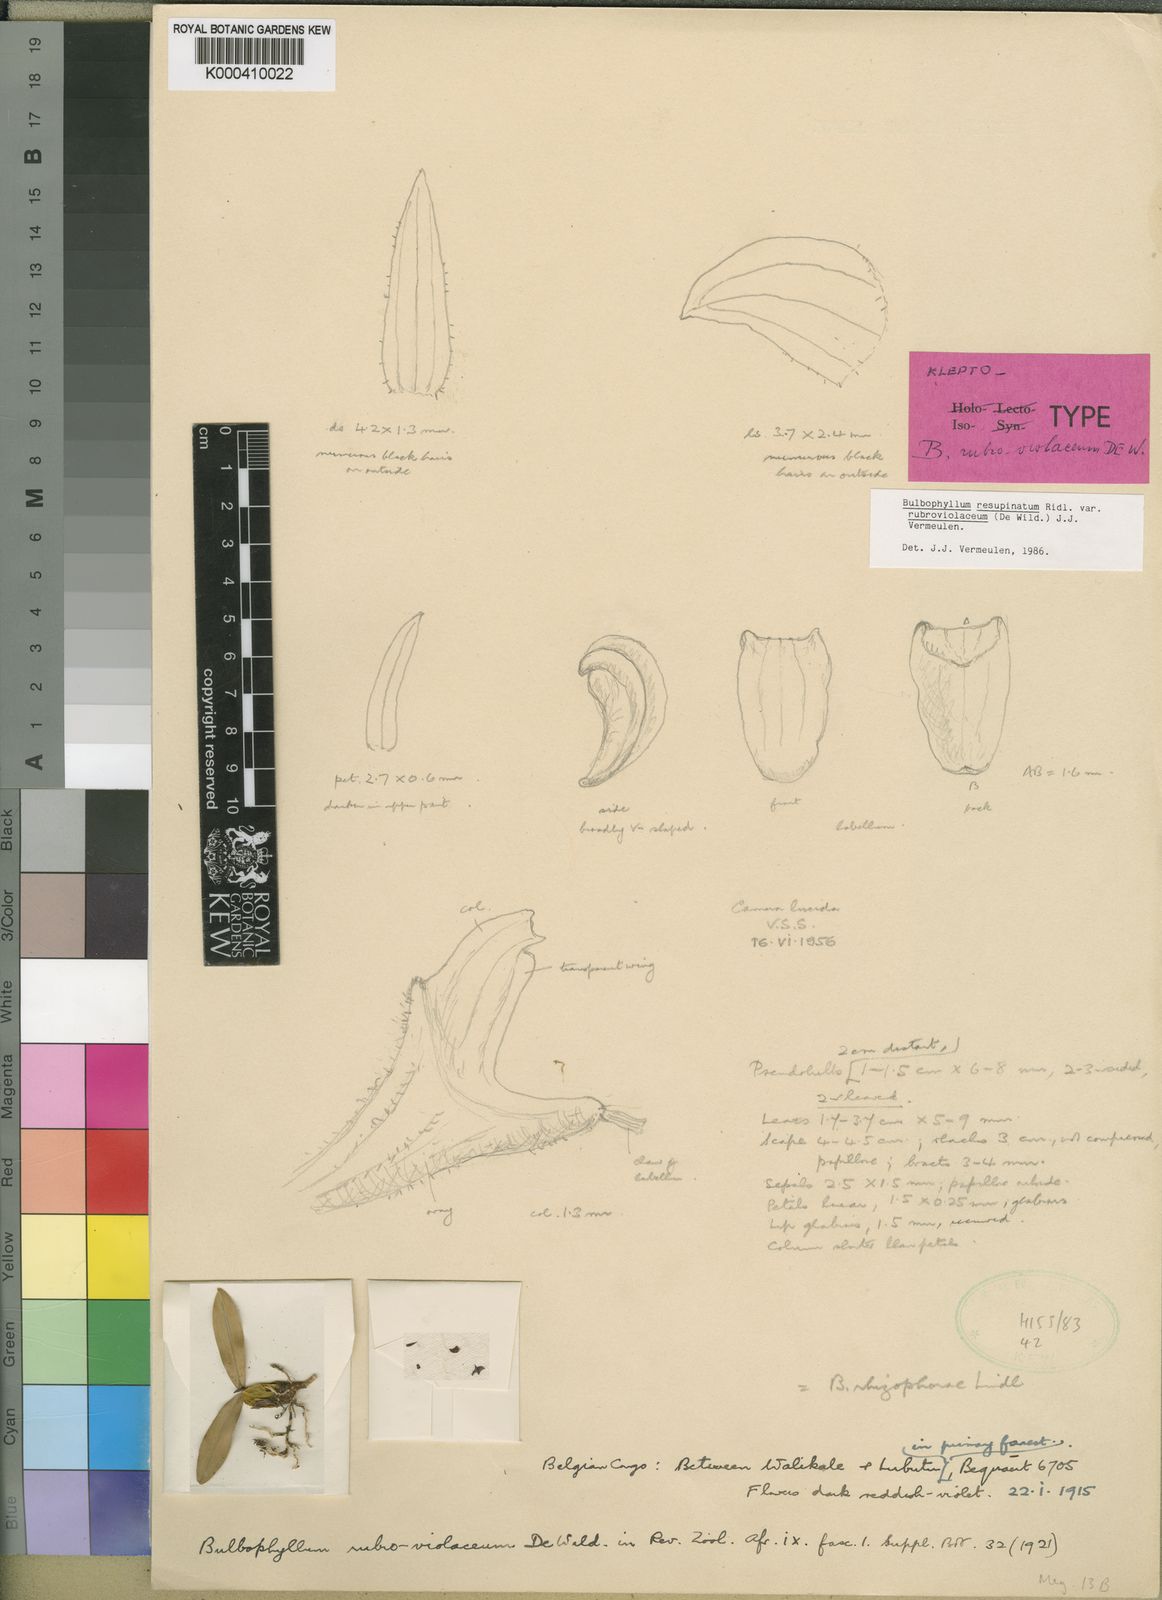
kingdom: Plantae
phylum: Tracheophyta
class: Liliopsida
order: Asparagales
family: Orchidaceae
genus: Bulbophyllum
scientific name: Bulbophyllum resupinatum
